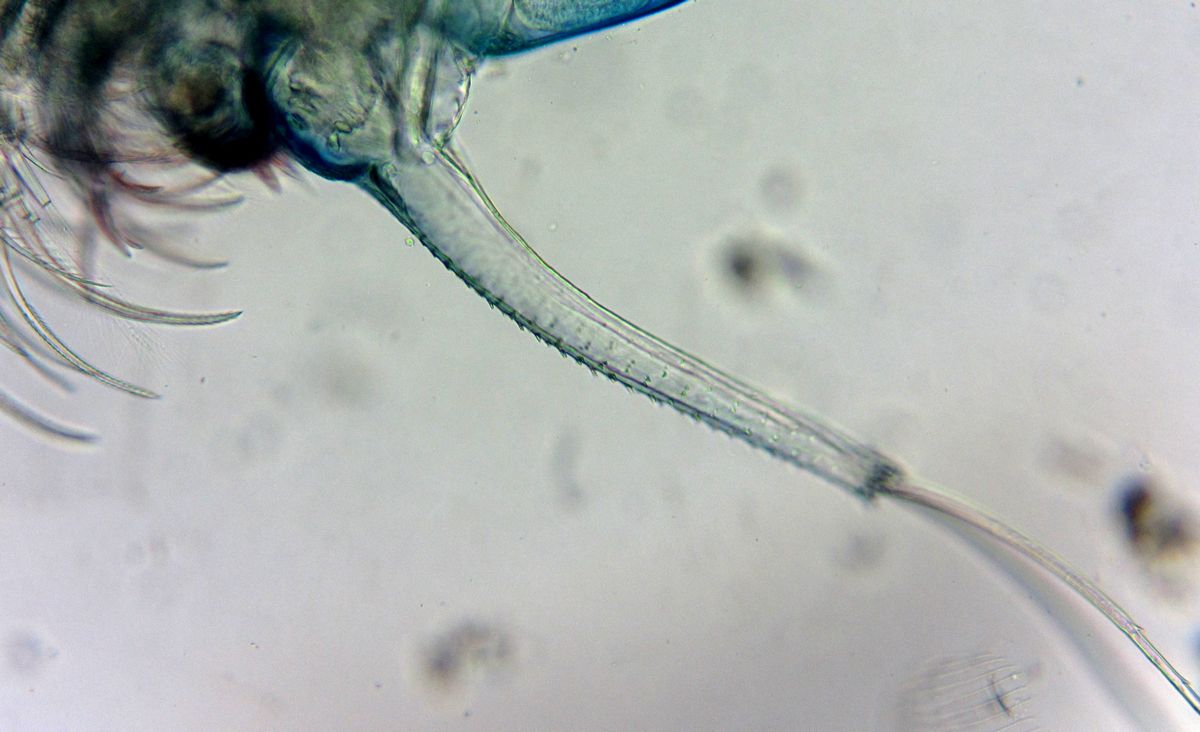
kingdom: Animalia
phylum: Arthropoda
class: Branchiopoda
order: Diplostraca
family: Polyphemidae
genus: Polyphemus
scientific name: Polyphemus pediculus
